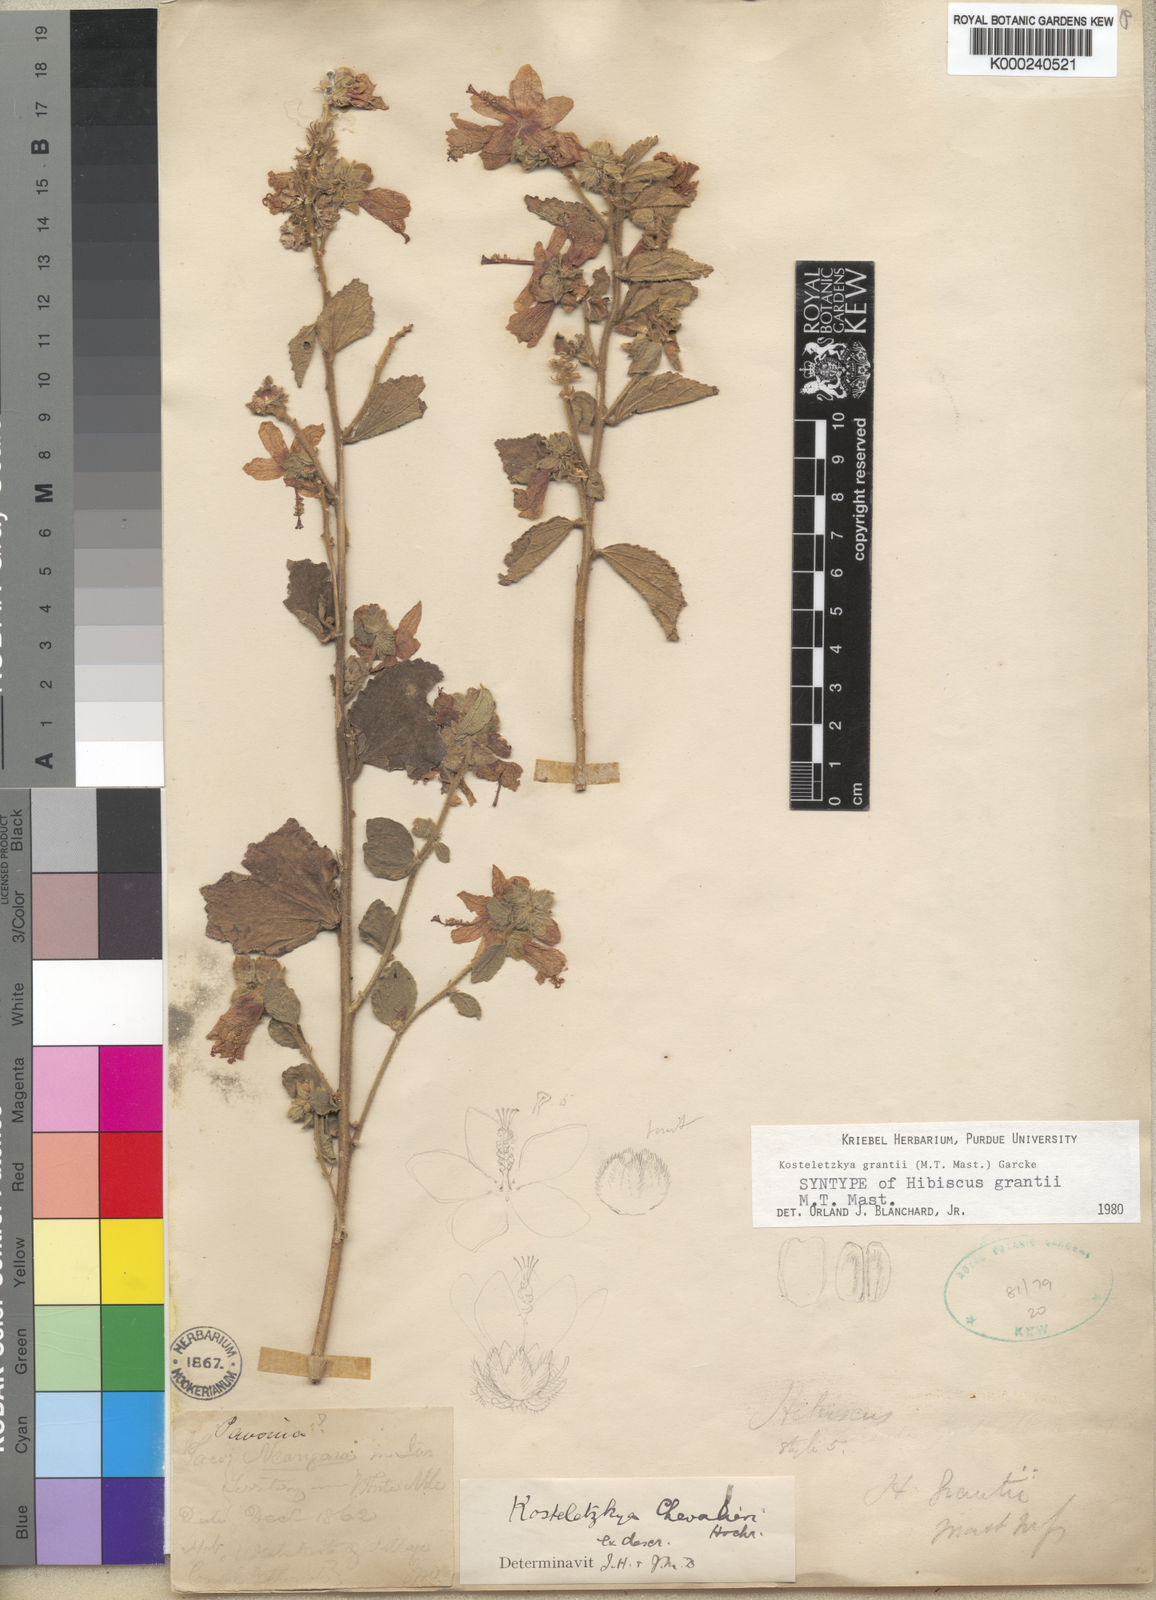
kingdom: Plantae
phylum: Tracheophyta
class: Magnoliopsida
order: Malvales
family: Malvaceae
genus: Kosteletzkya
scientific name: Kosteletzkya grantii
